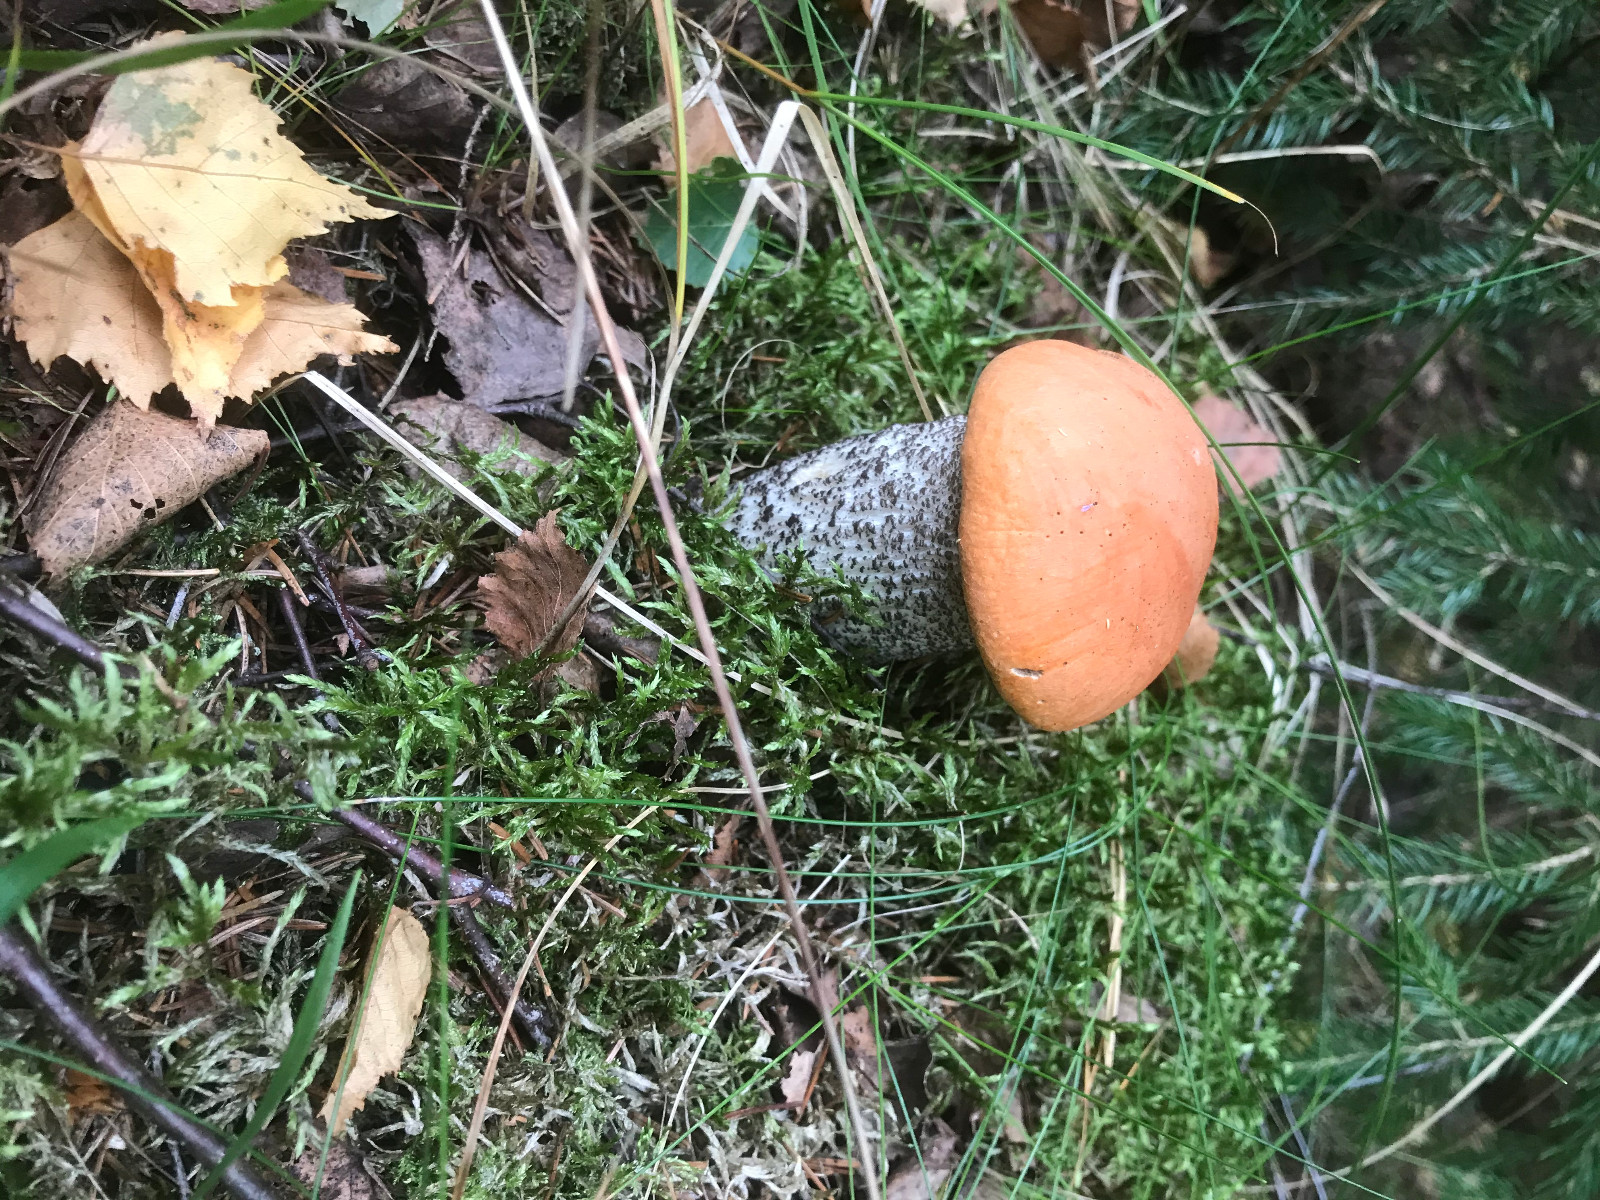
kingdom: Fungi
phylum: Basidiomycota
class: Agaricomycetes
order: Boletales
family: Boletaceae
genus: Leccinum
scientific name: Leccinum versipelle
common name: orange skælrørhat
